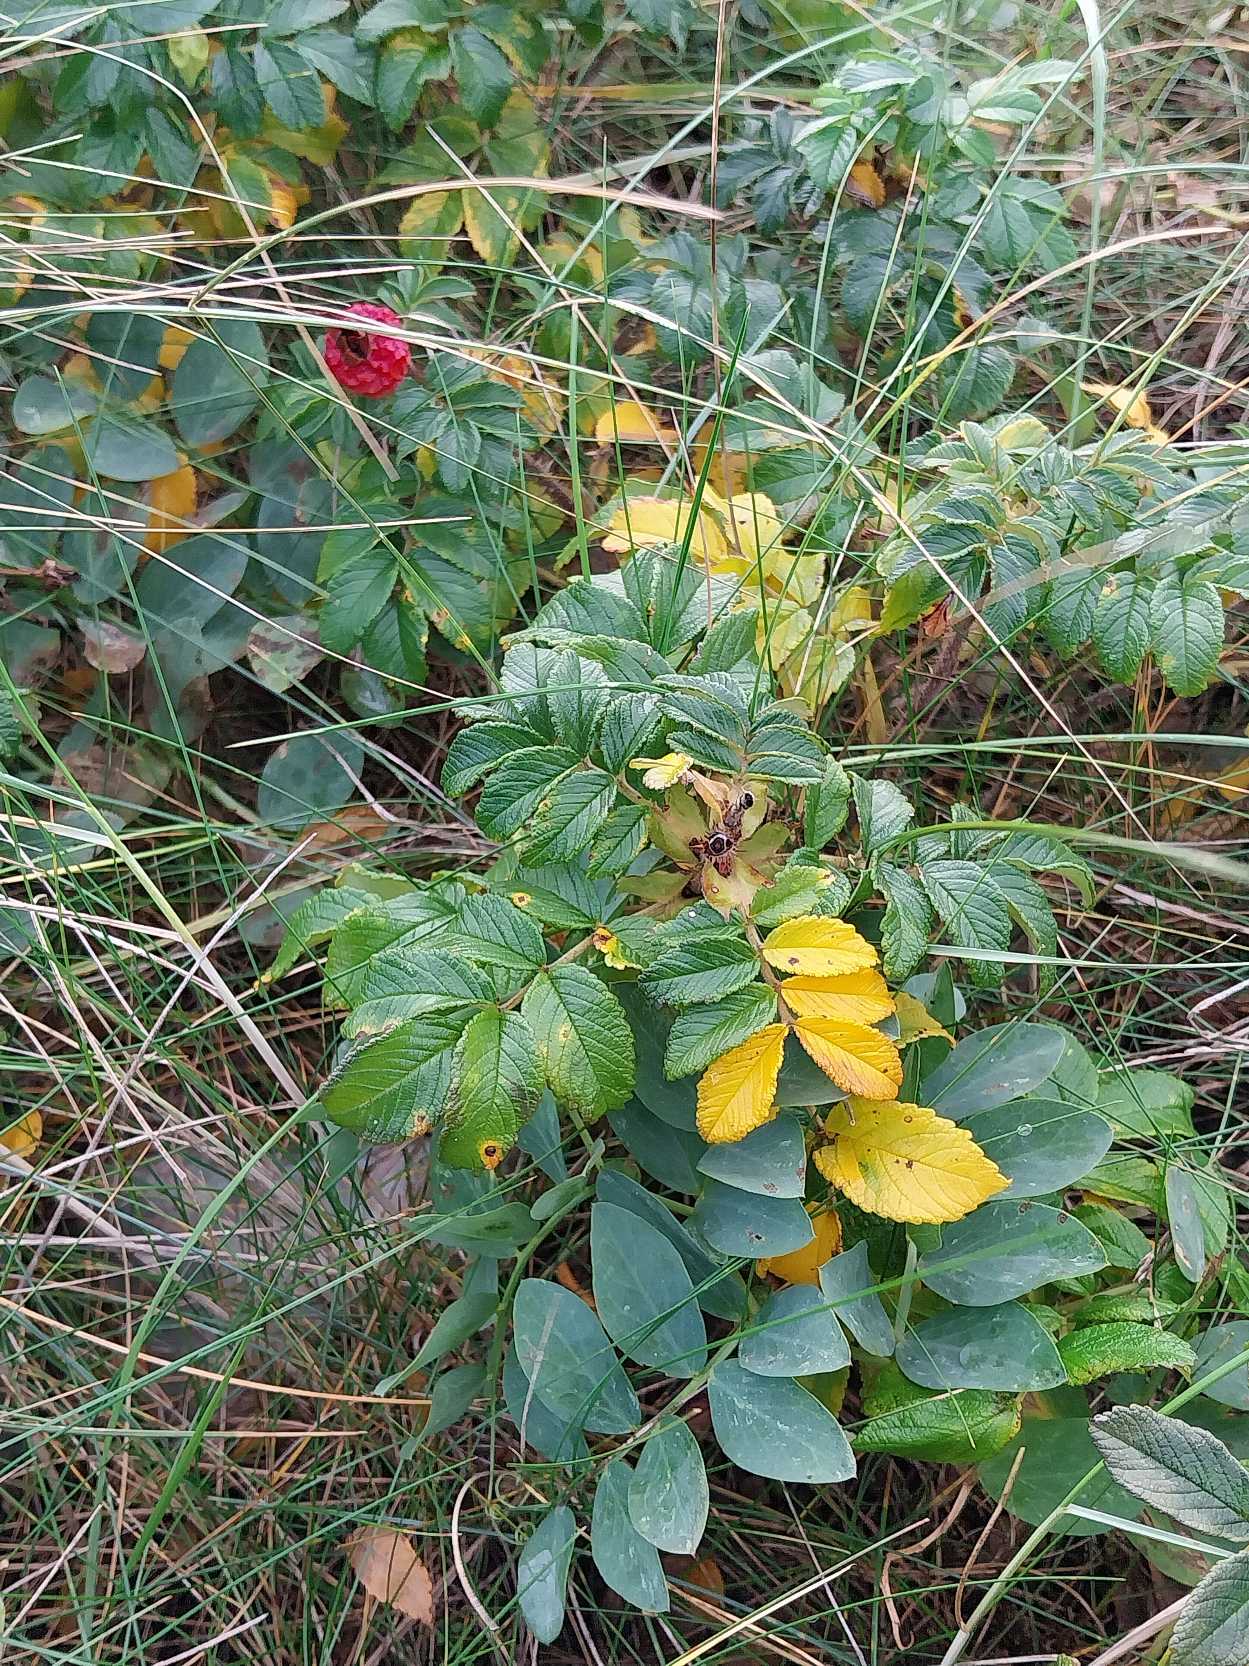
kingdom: Plantae
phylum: Tracheophyta
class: Magnoliopsida
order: Rosales
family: Rosaceae
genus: Rosa
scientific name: Rosa rugosa
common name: Rynket rose
